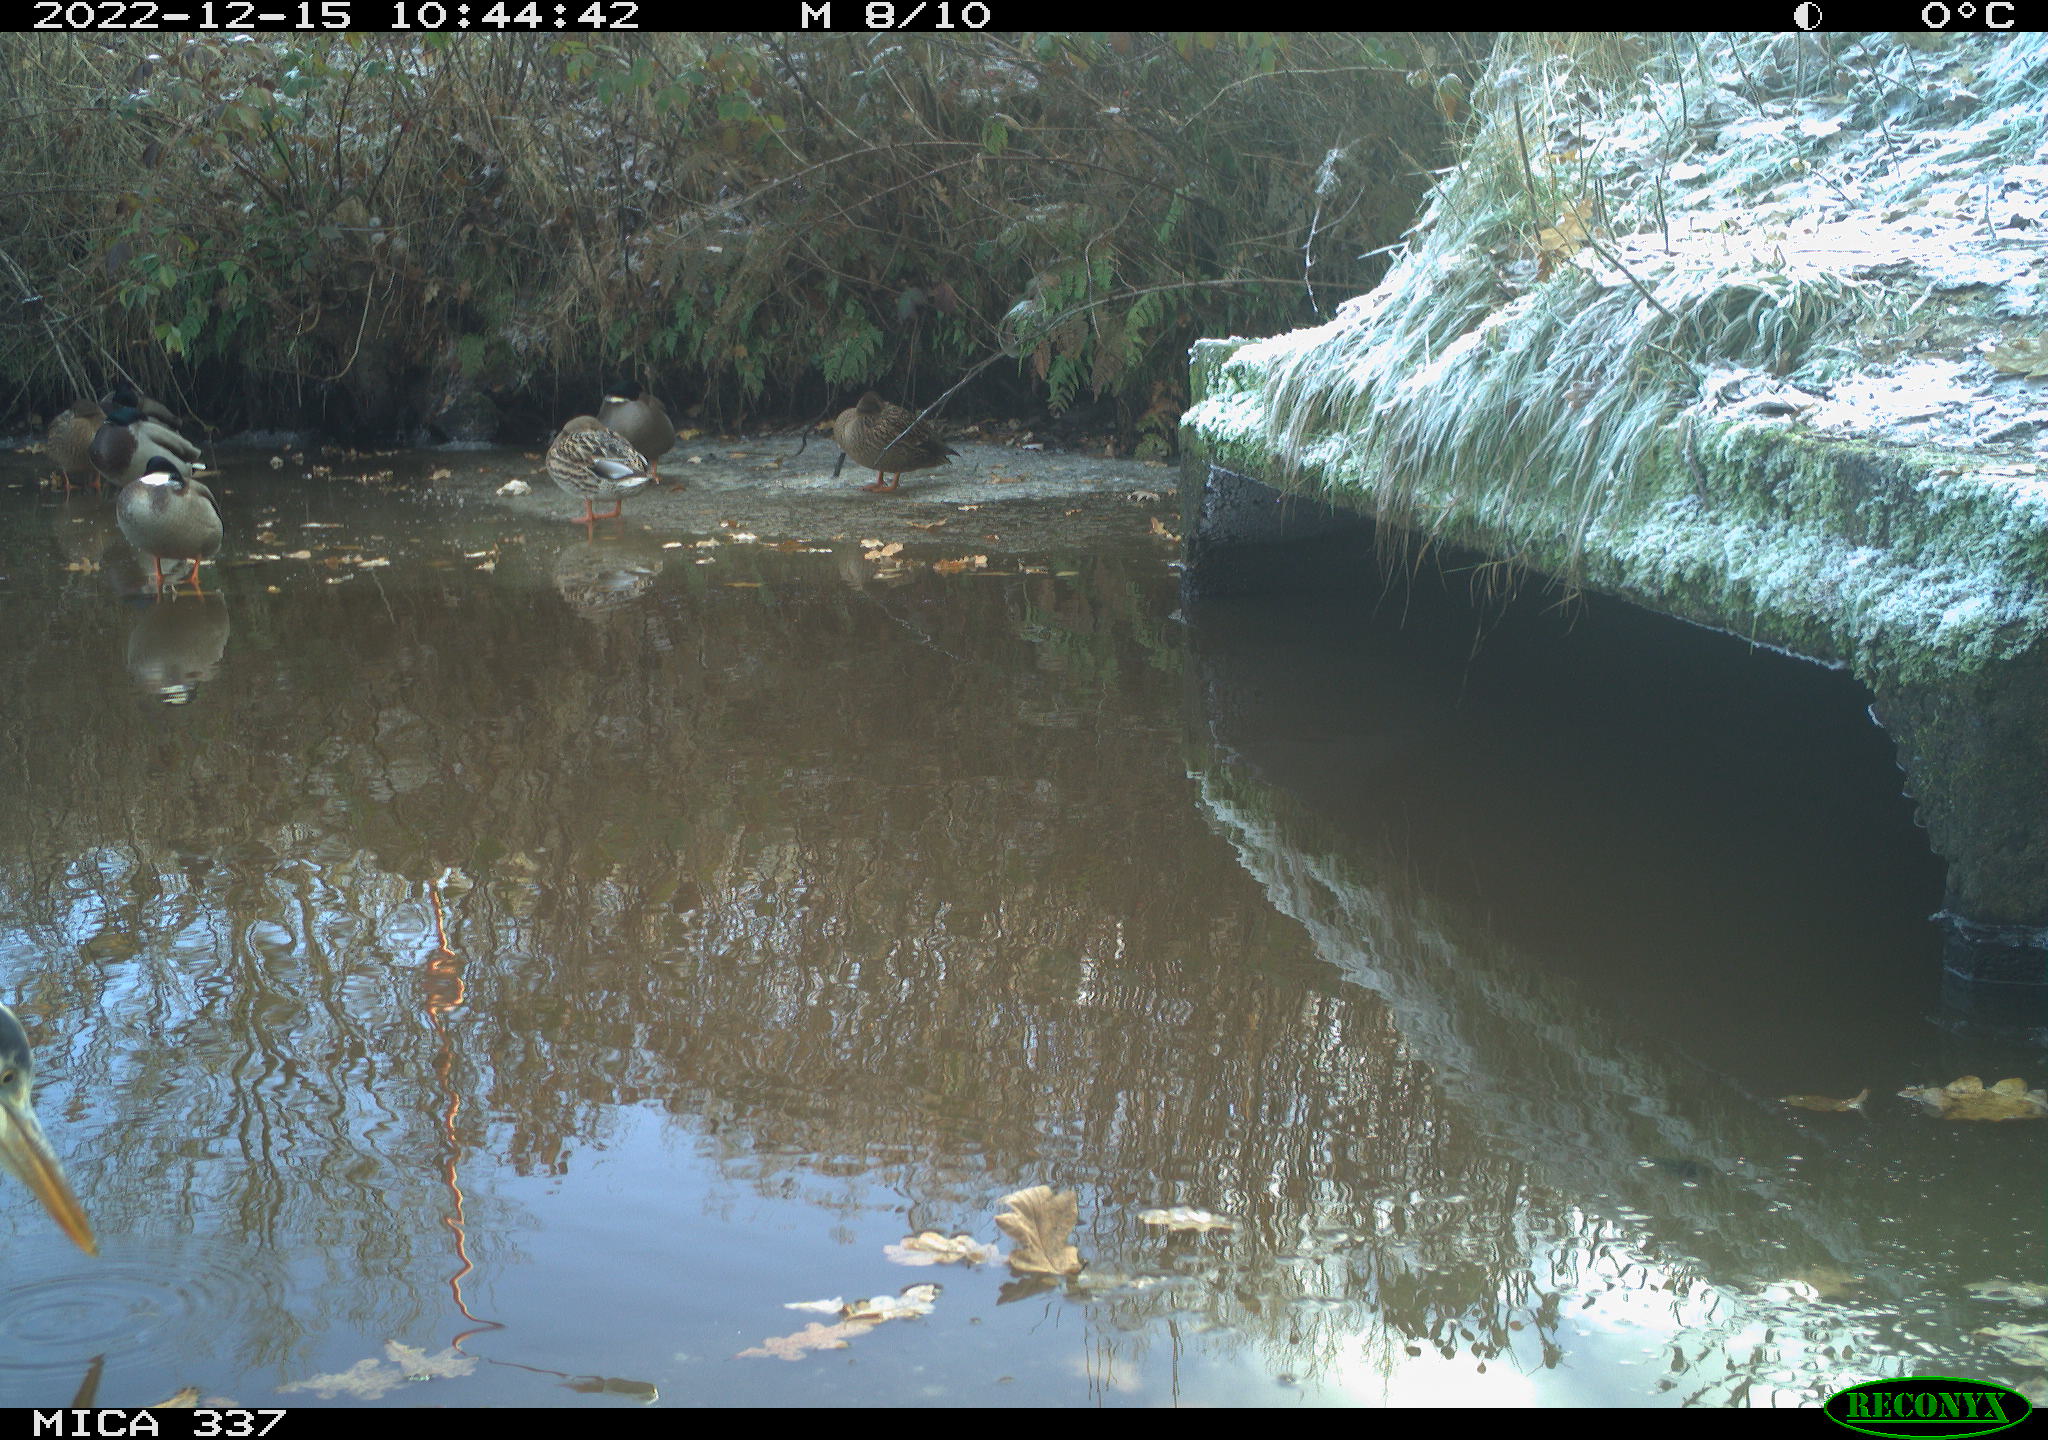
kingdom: Animalia
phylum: Chordata
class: Aves
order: Pelecaniformes
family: Ardeidae
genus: Ardea
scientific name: Ardea cinerea
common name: Grey heron
